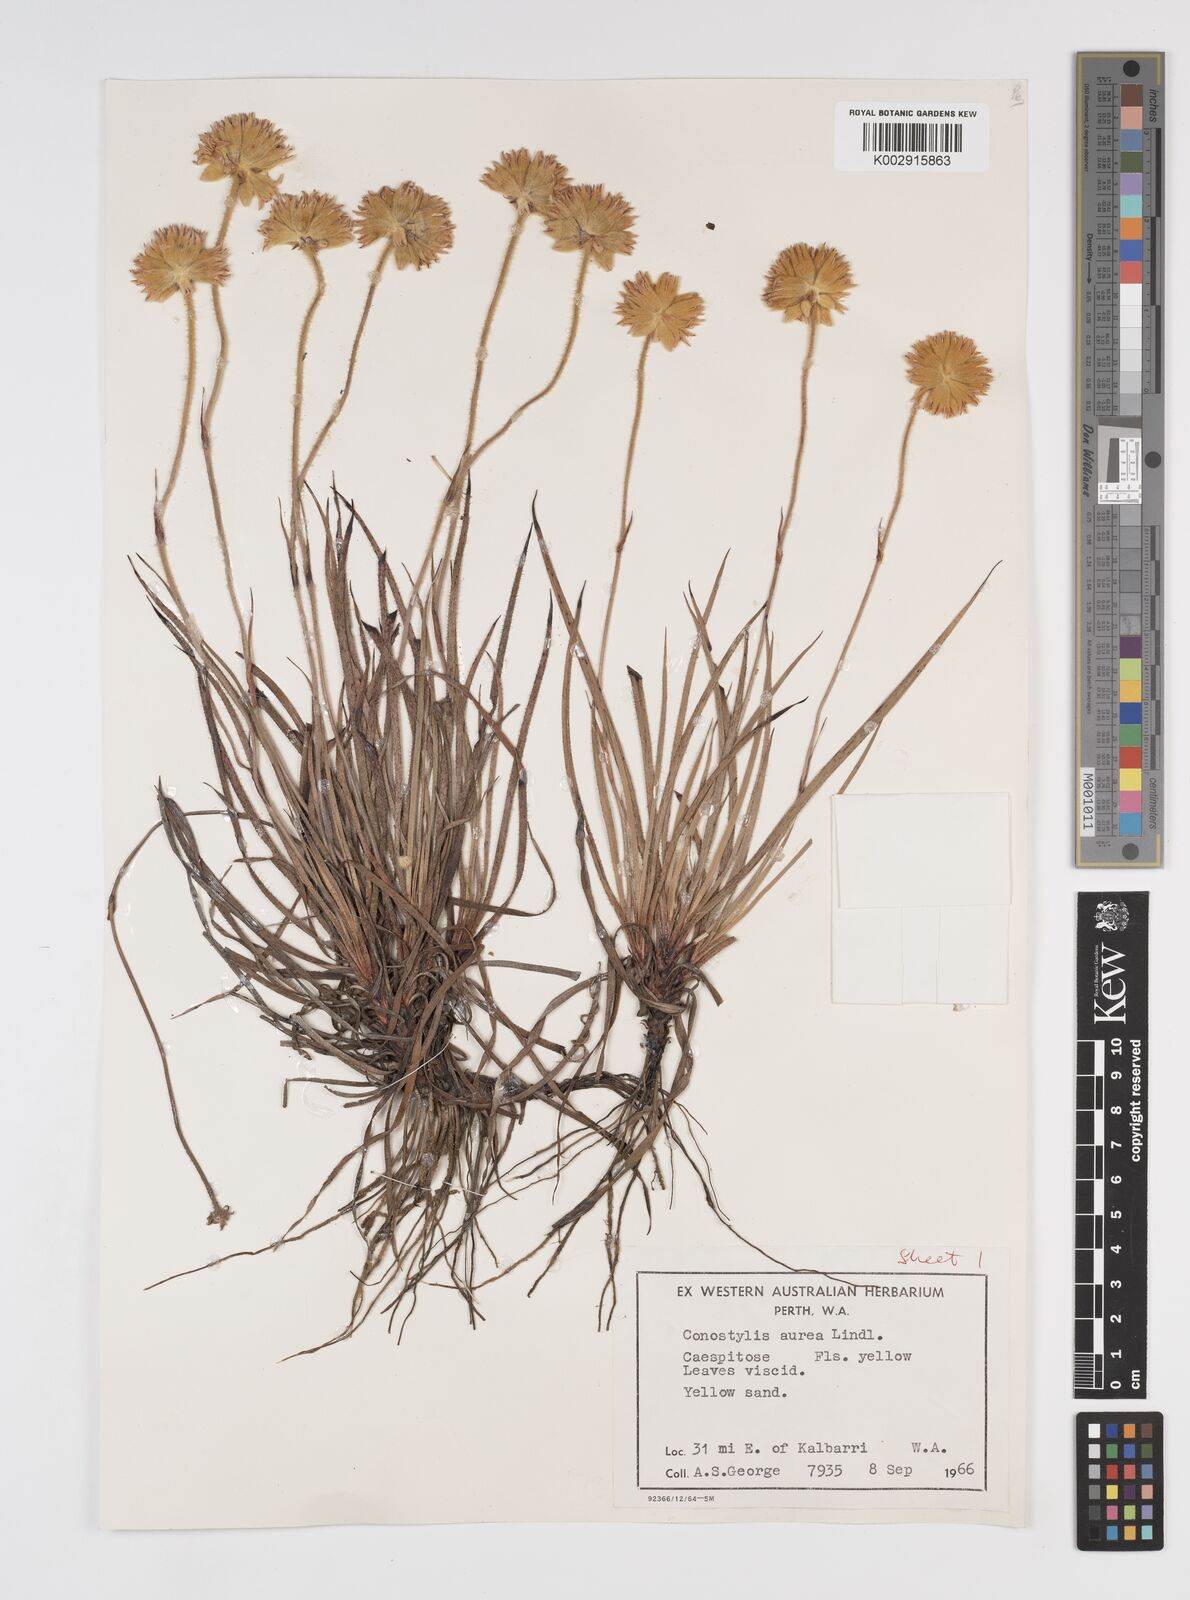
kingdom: Plantae
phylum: Tracheophyta
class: Liliopsida
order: Commelinales
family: Haemodoraceae
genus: Conostylis
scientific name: Conostylis aurea
